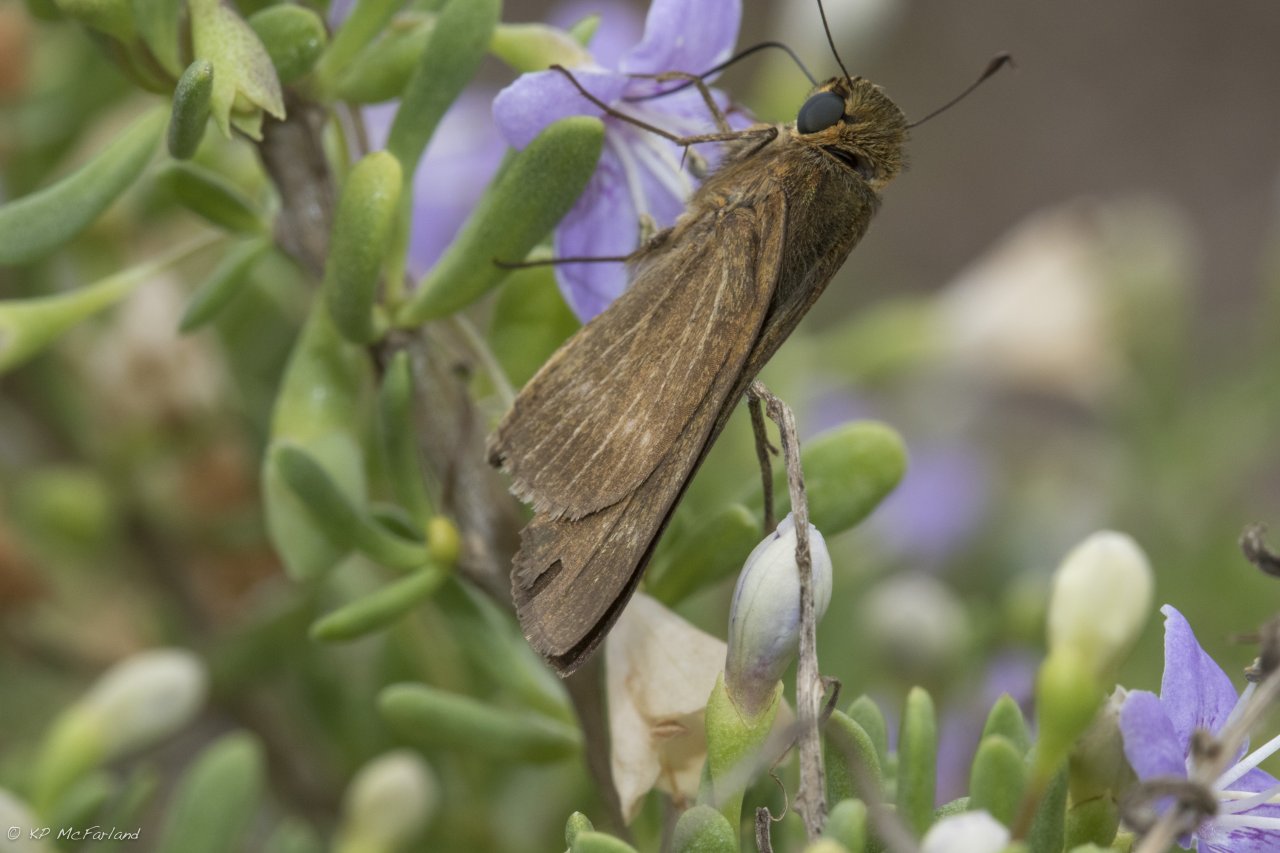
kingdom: Animalia
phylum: Arthropoda
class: Insecta
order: Lepidoptera
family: Hesperiidae
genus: Panoquina
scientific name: Panoquina ocola
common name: Ocola Skipper
